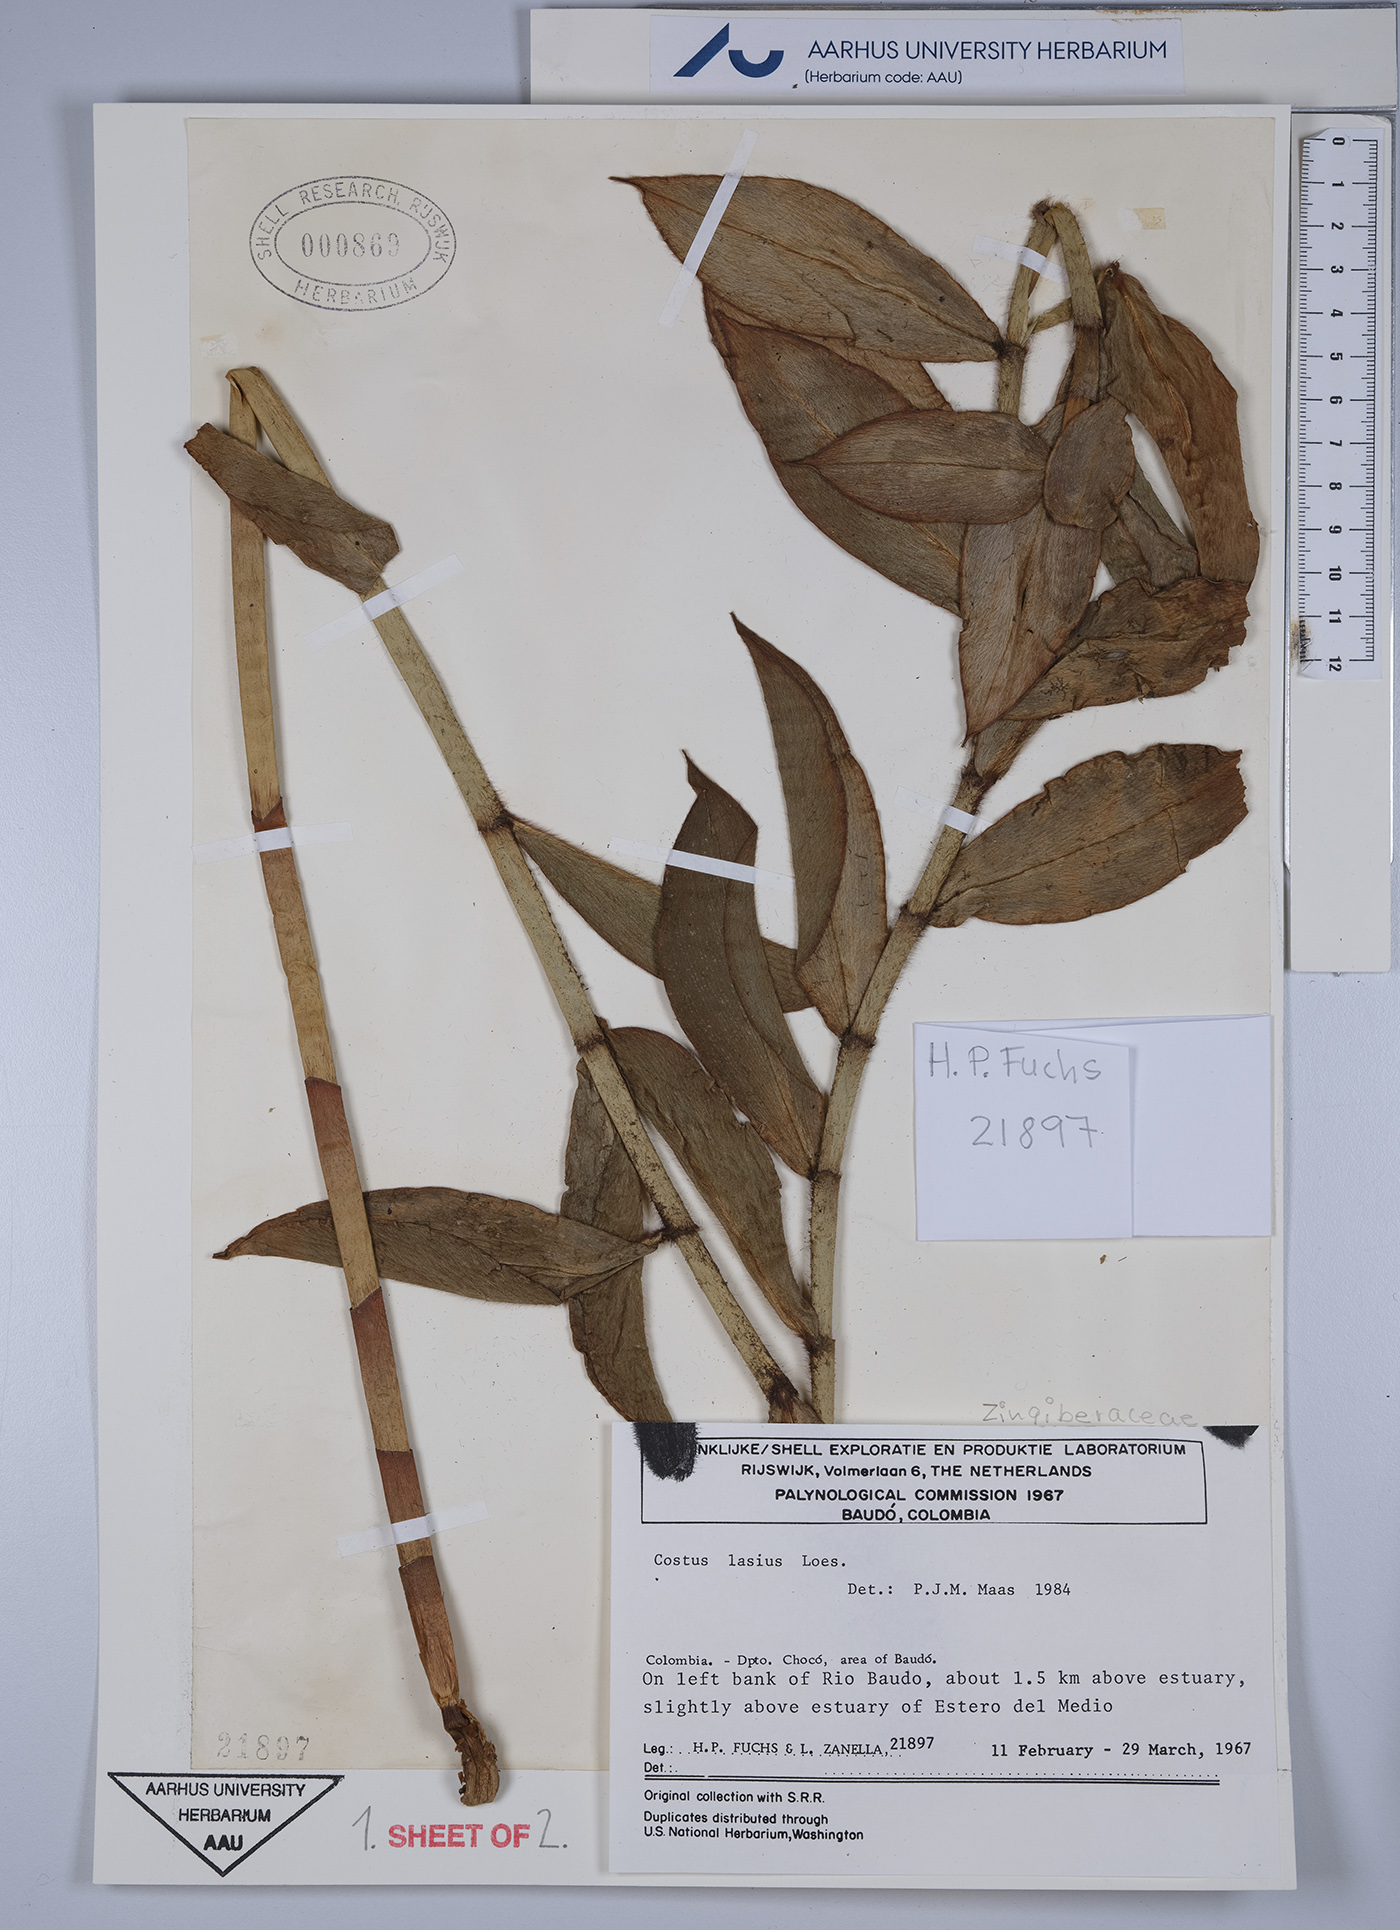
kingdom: Plantae
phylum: Tracheophyta
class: Liliopsida
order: Zingiberales
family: Costaceae
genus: Costus
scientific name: Costus lasius
